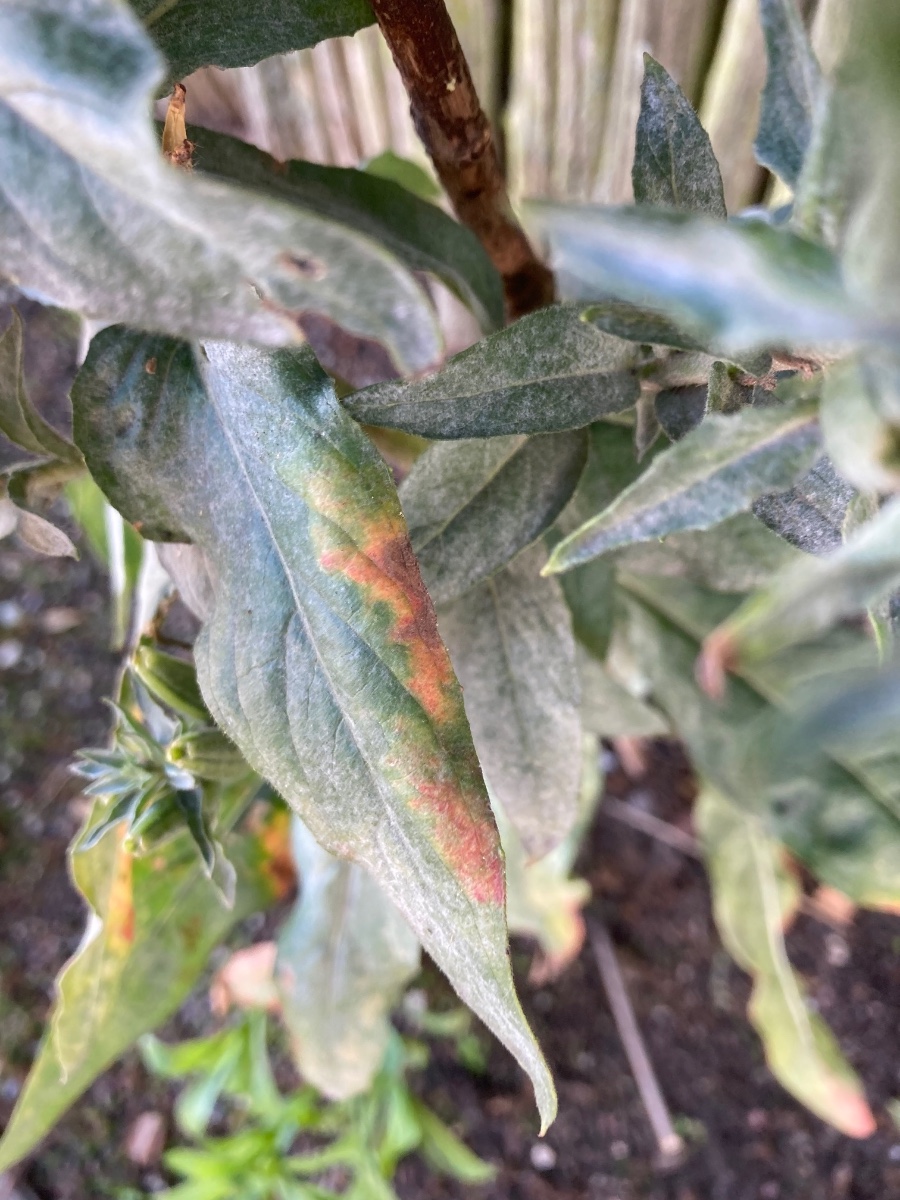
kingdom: Fungi
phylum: Ascomycota
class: Leotiomycetes
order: Helotiales
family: Erysiphaceae
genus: Erysiphe
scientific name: Erysiphe howeana
